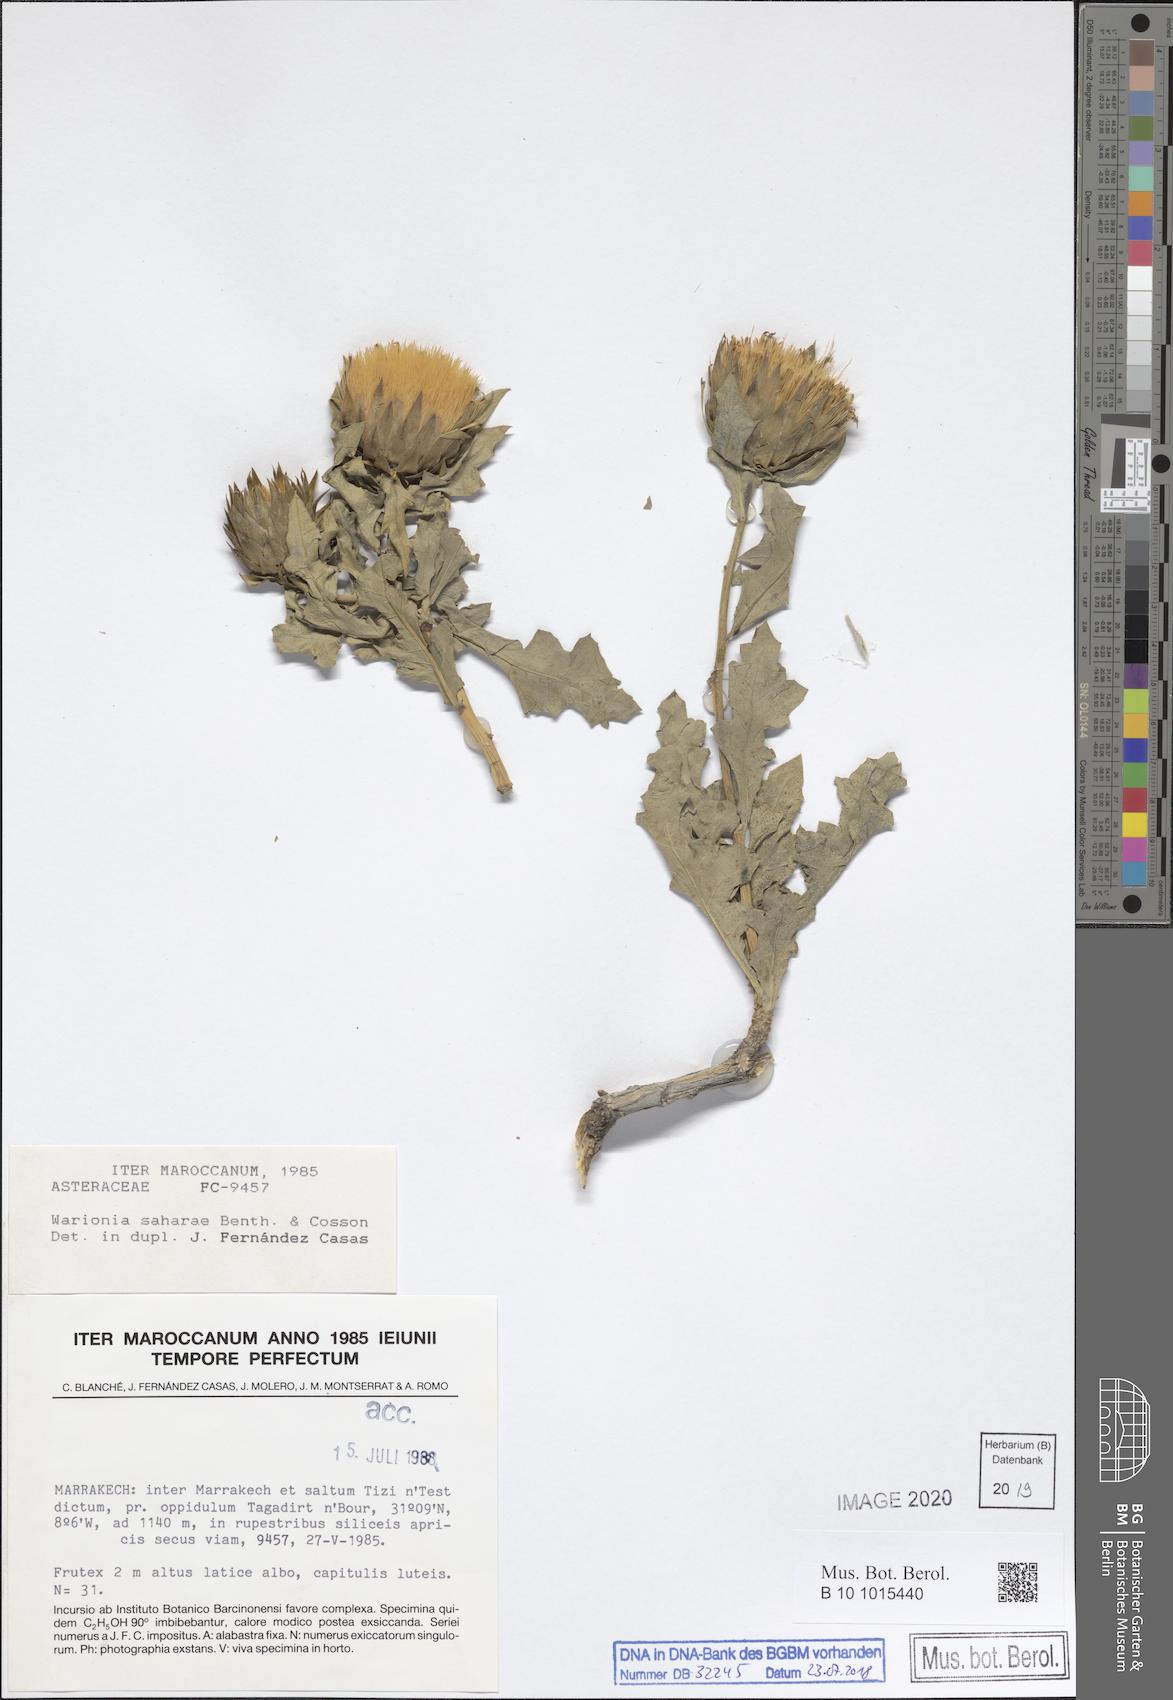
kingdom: Plantae
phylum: Tracheophyta
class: Magnoliopsida
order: Asterales
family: Asteraceae
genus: Warionia
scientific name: Warionia saharae
